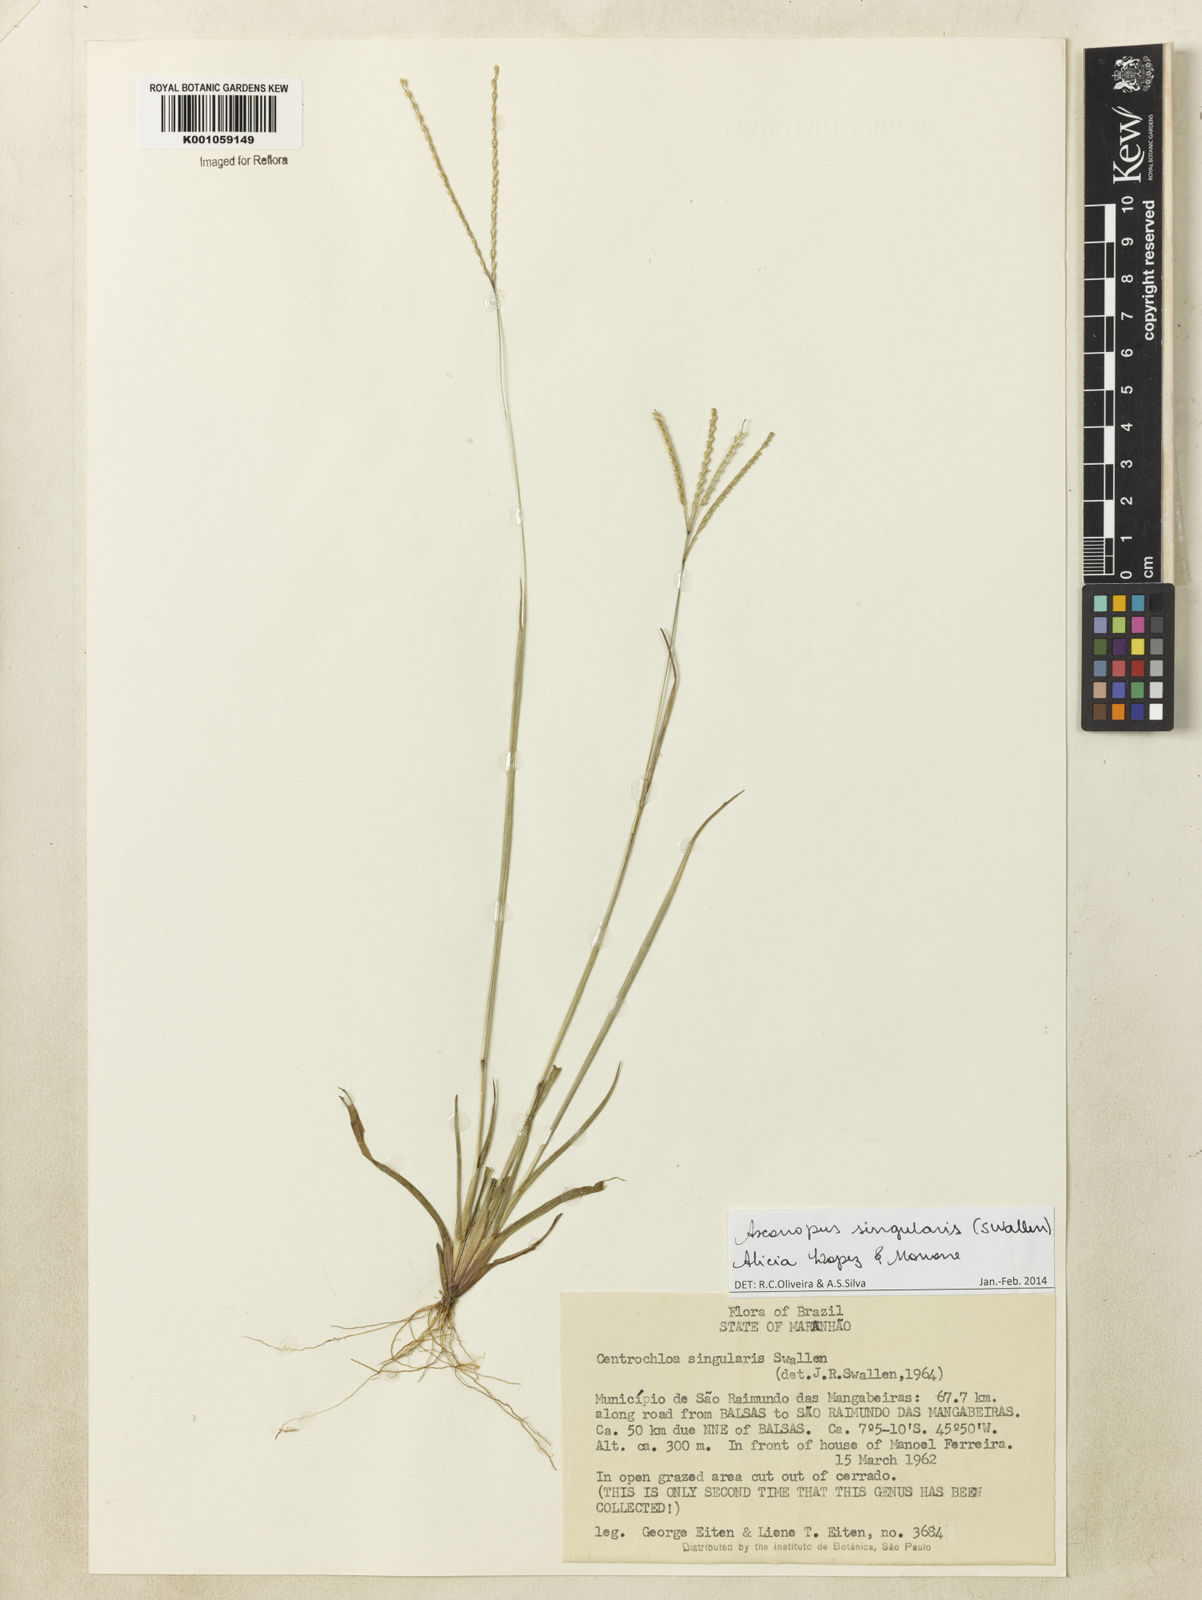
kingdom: Plantae
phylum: Tracheophyta
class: Liliopsida
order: Poales
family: Poaceae
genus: Axonopus
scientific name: Axonopus
